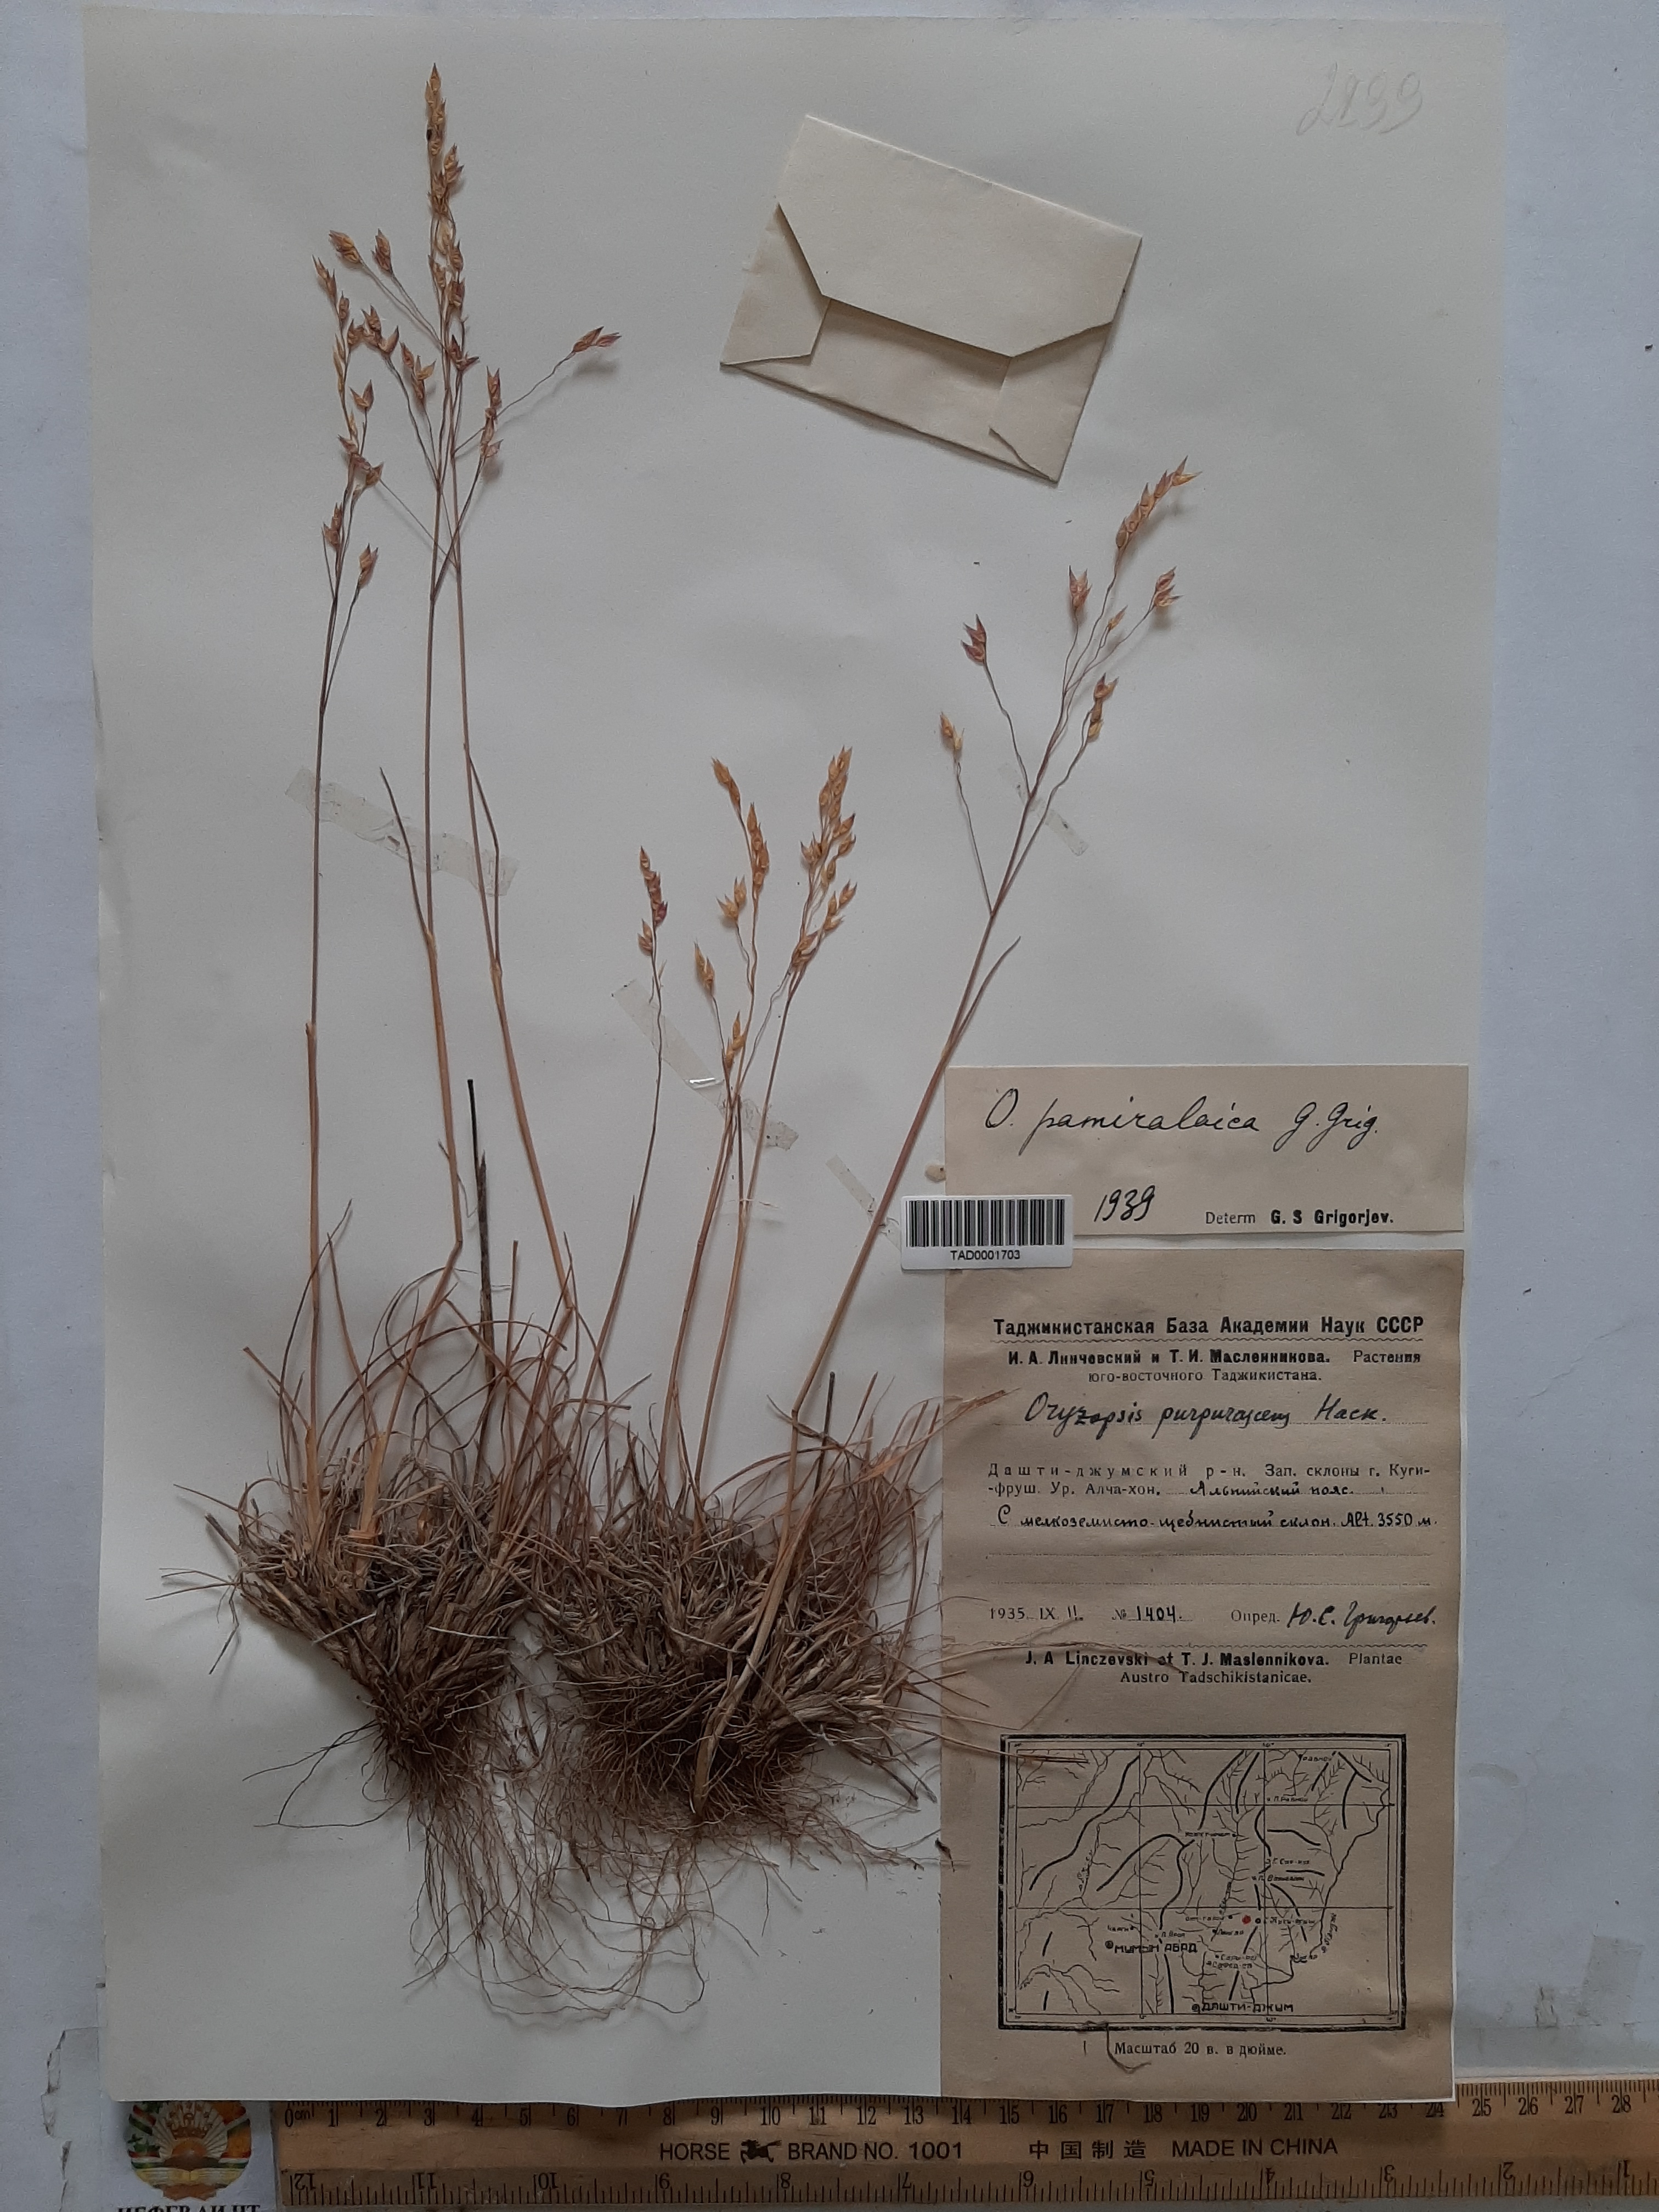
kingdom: Plantae
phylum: Tracheophyta
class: Liliopsida
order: Poales
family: Poaceae
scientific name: Poaceae
